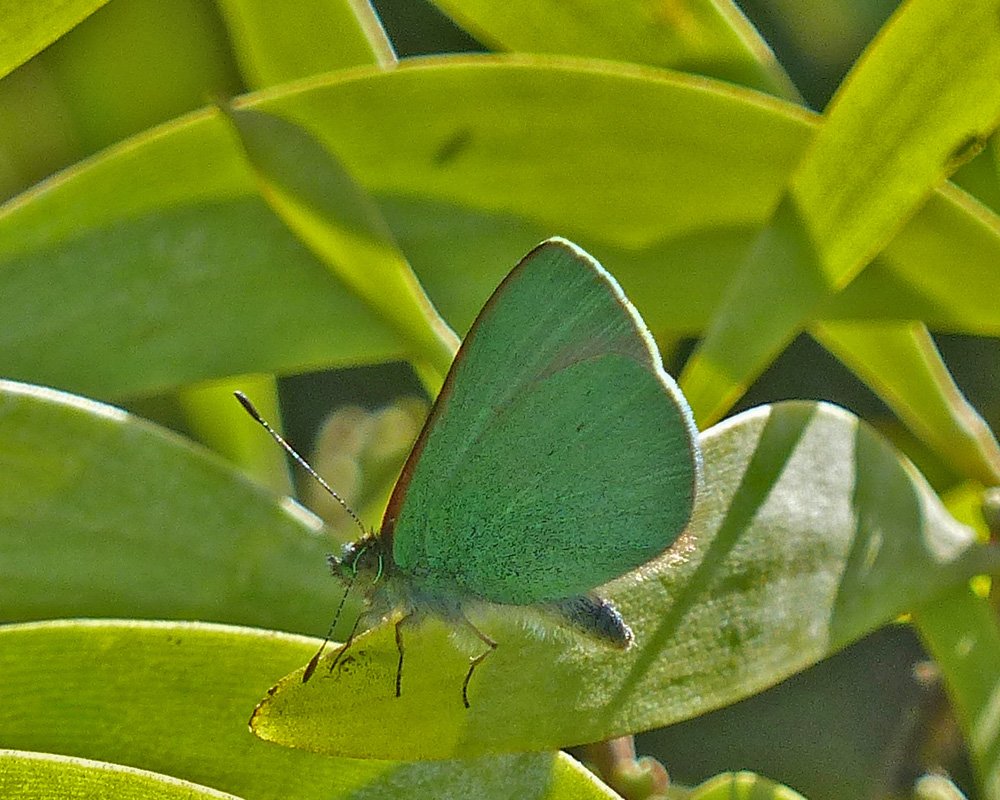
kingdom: Animalia
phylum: Arthropoda
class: Insecta
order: Lepidoptera
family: Lycaenidae
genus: Udara
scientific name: Udara blackburni
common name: Hawaiian Blue
